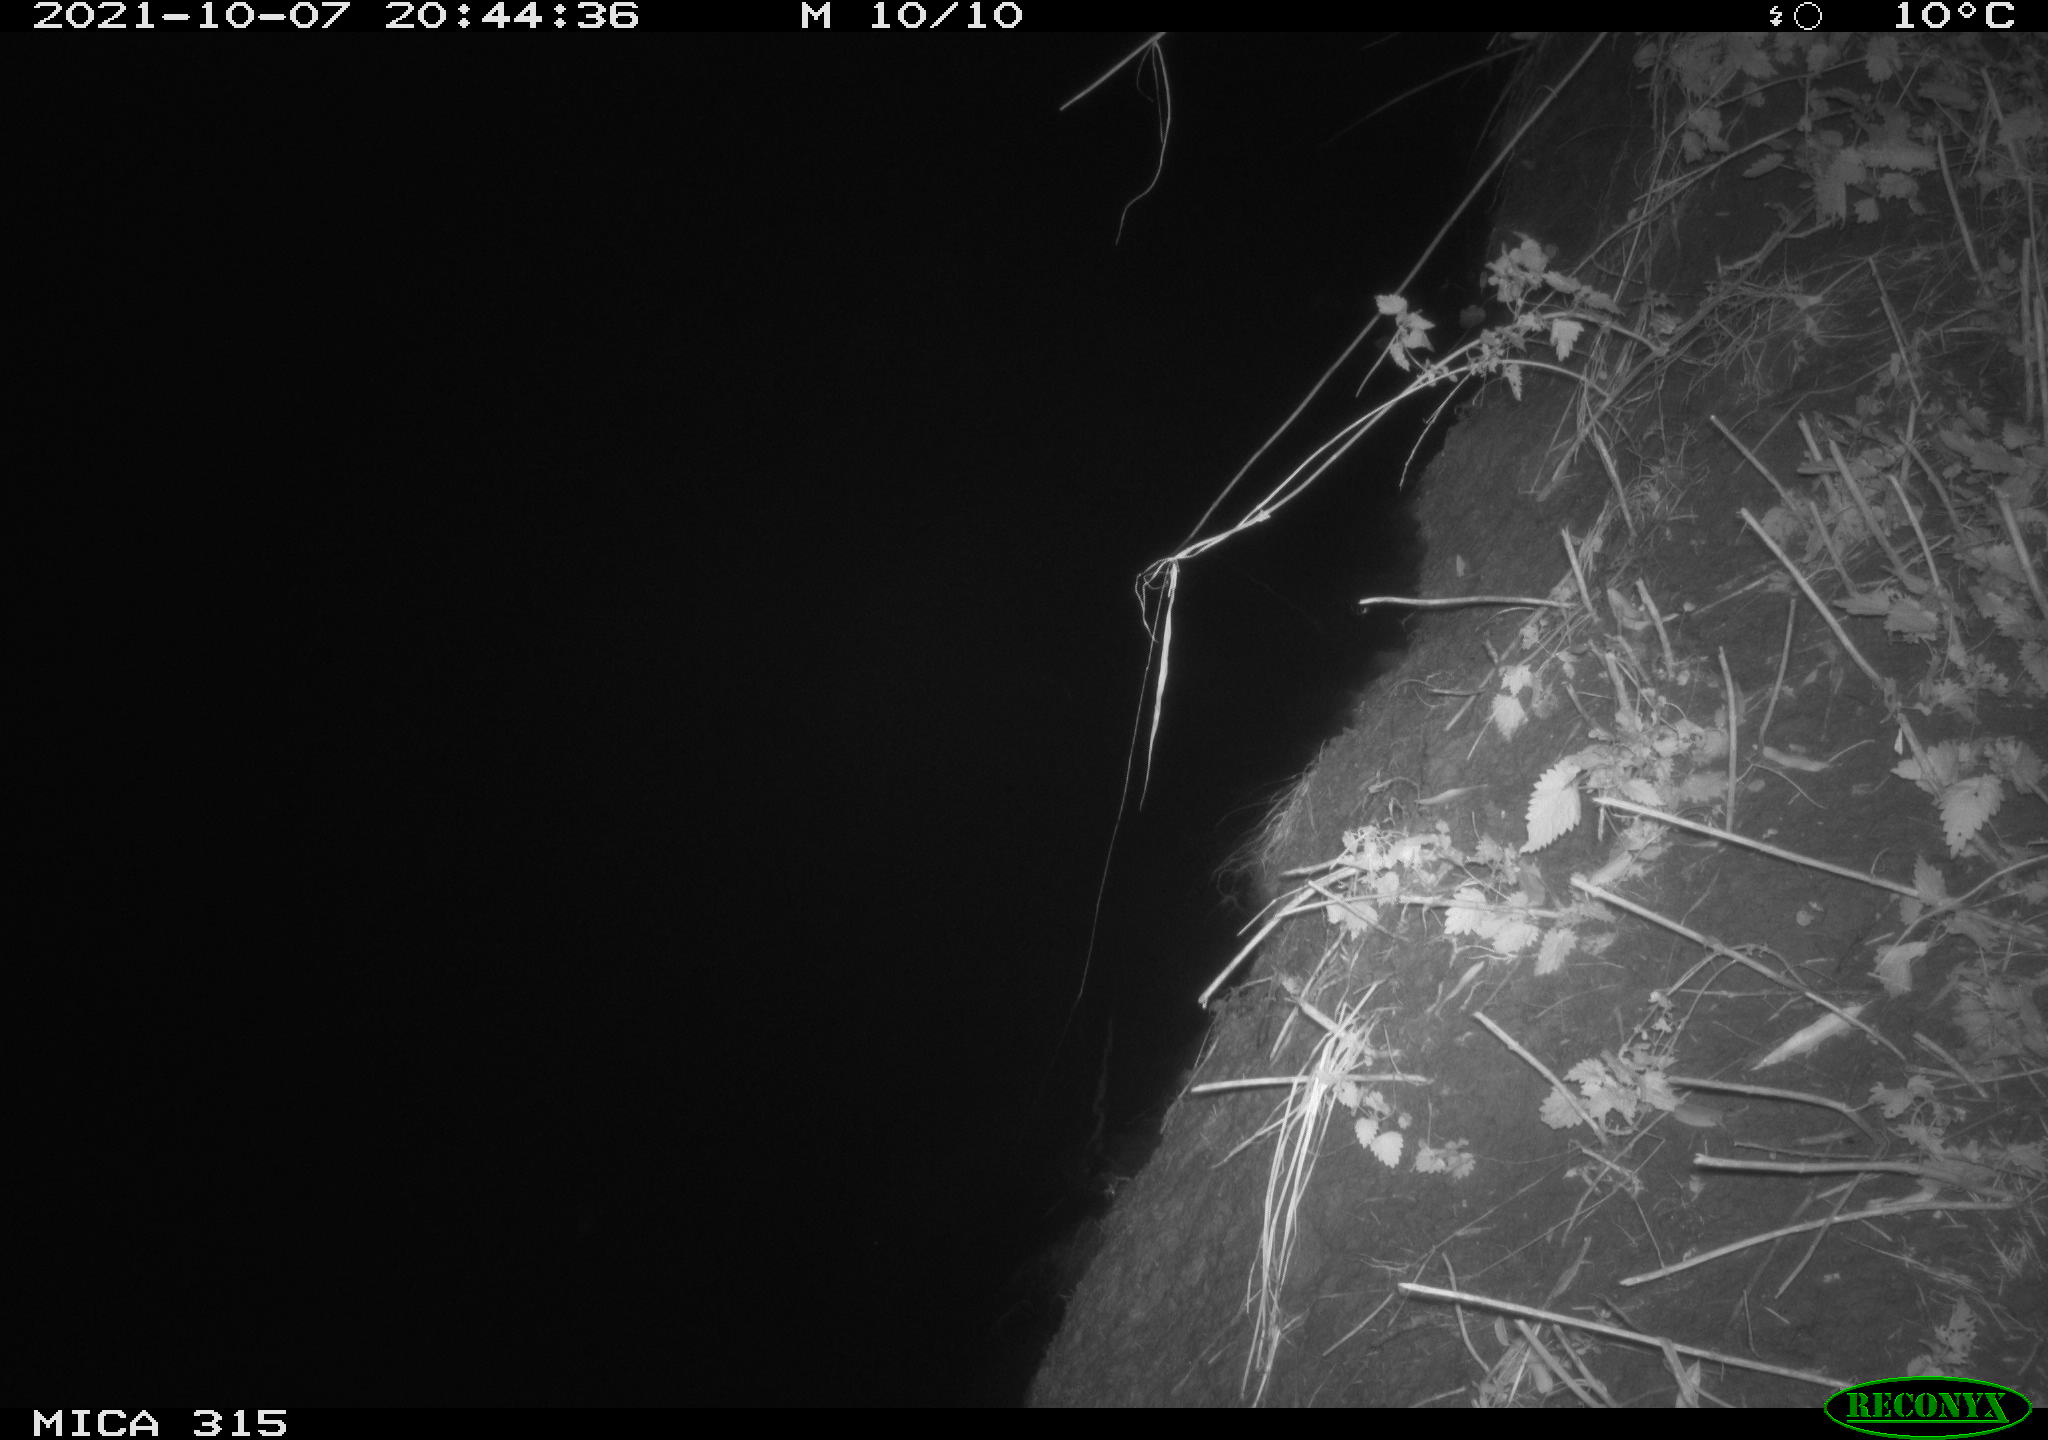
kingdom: Animalia
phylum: Chordata
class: Mammalia
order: Rodentia
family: Muridae
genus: Rattus
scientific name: Rattus norvegicus
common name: Brown rat
